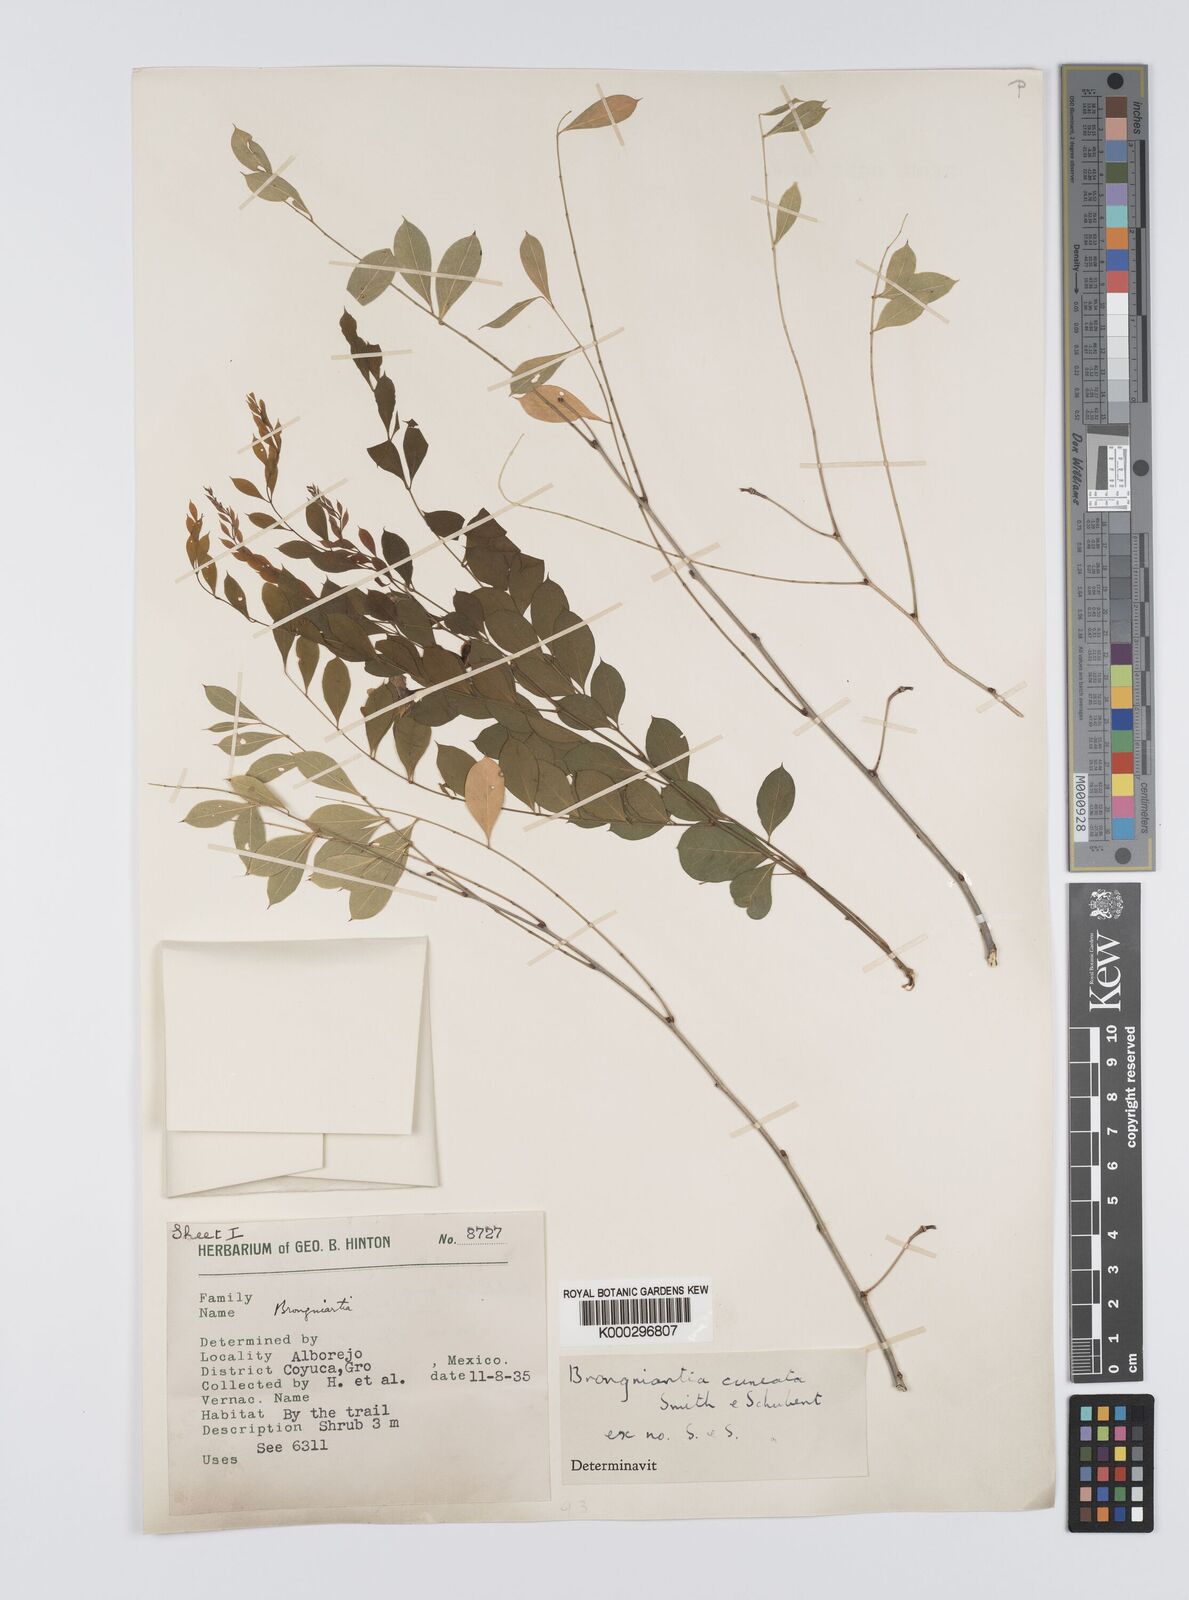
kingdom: Plantae
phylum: Tracheophyta
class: Magnoliopsida
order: Fabales
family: Fabaceae
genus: Brongniartia
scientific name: Brongniartia funiculata
